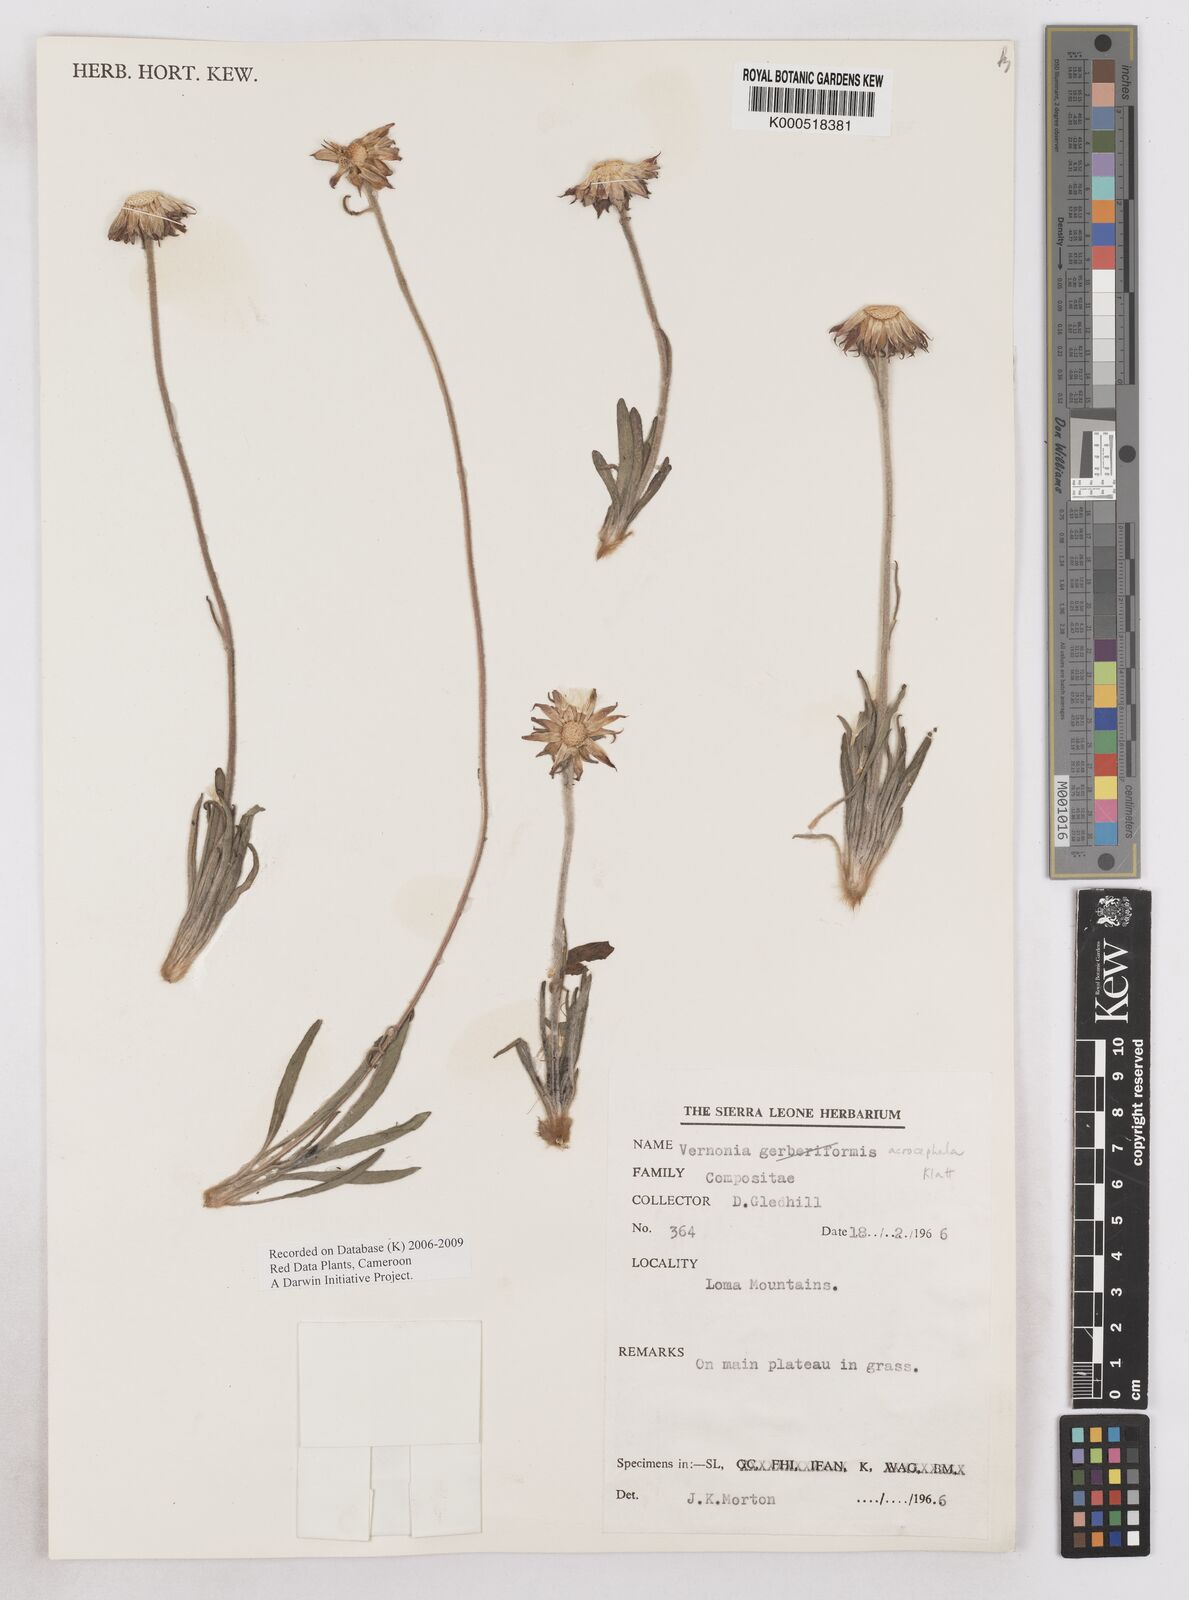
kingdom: Plantae
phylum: Tracheophyta
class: Magnoliopsida
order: Asterales
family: Asteraceae
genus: Vernonella
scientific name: Vernonella acrocephala
